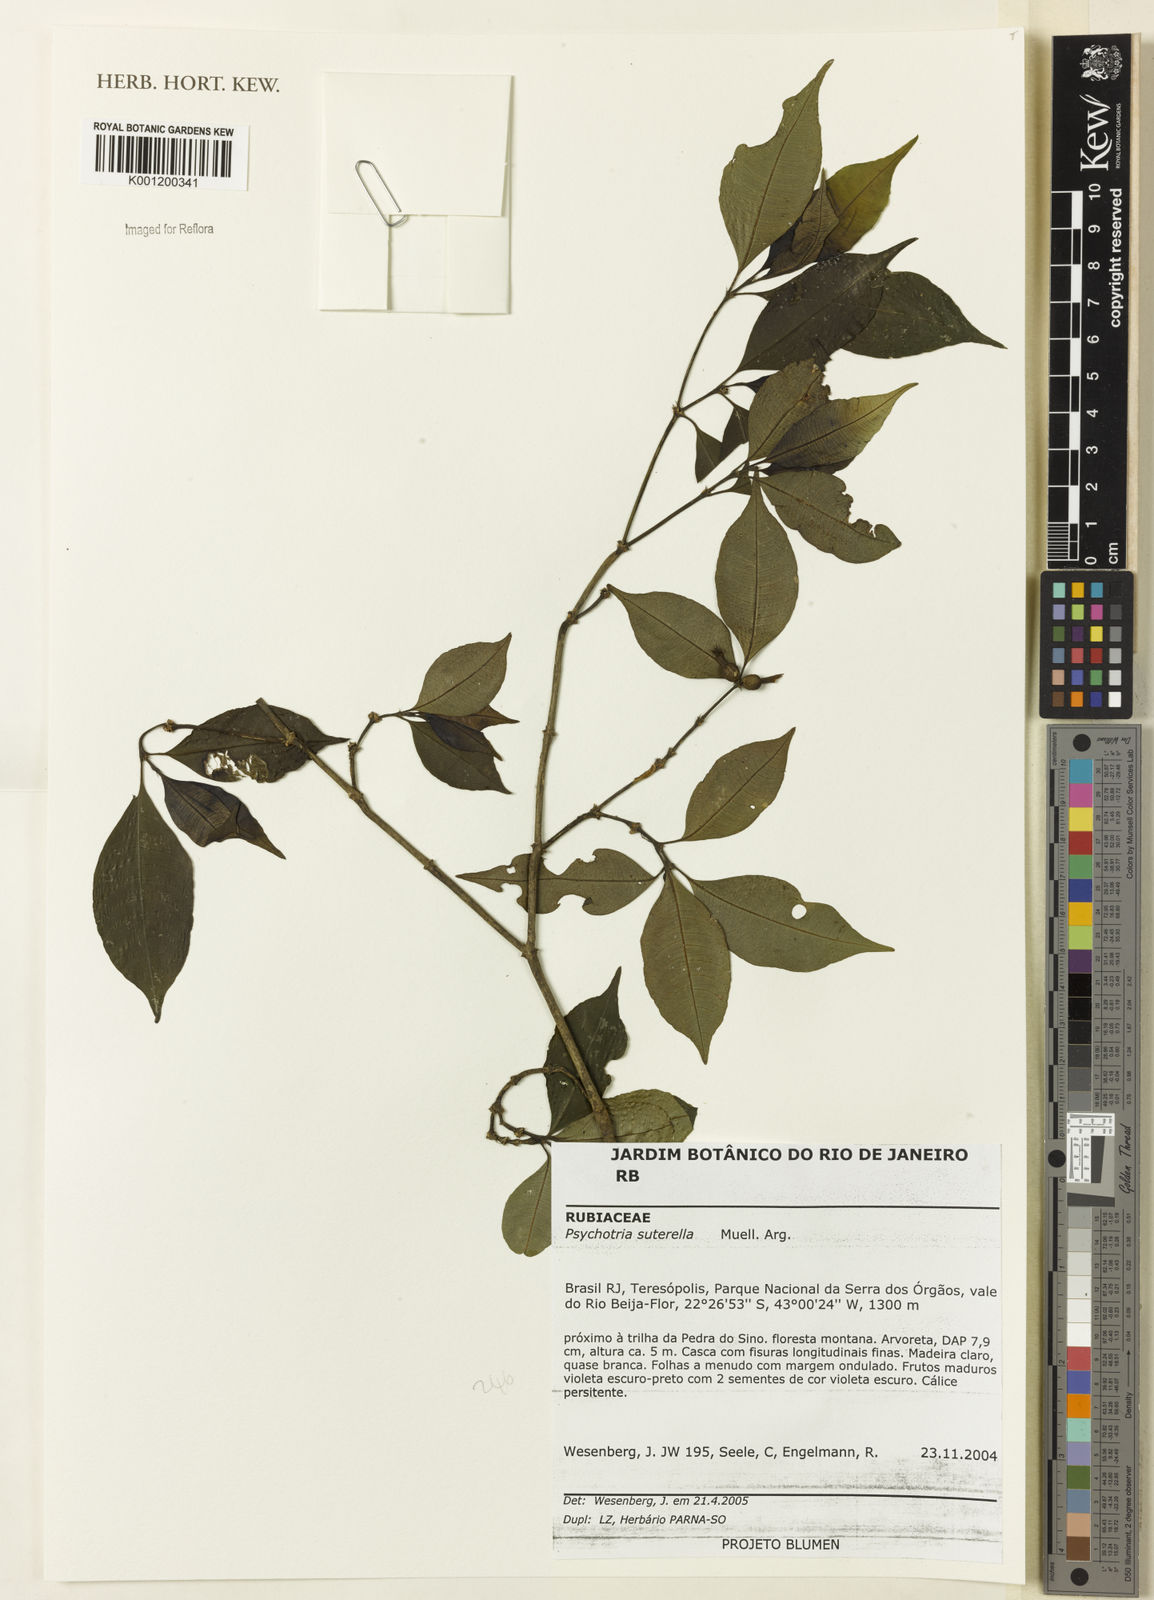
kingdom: Plantae
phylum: Tracheophyta
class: Magnoliopsida
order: Gentianales
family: Rubiaceae
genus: Psychotria
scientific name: Psychotria
